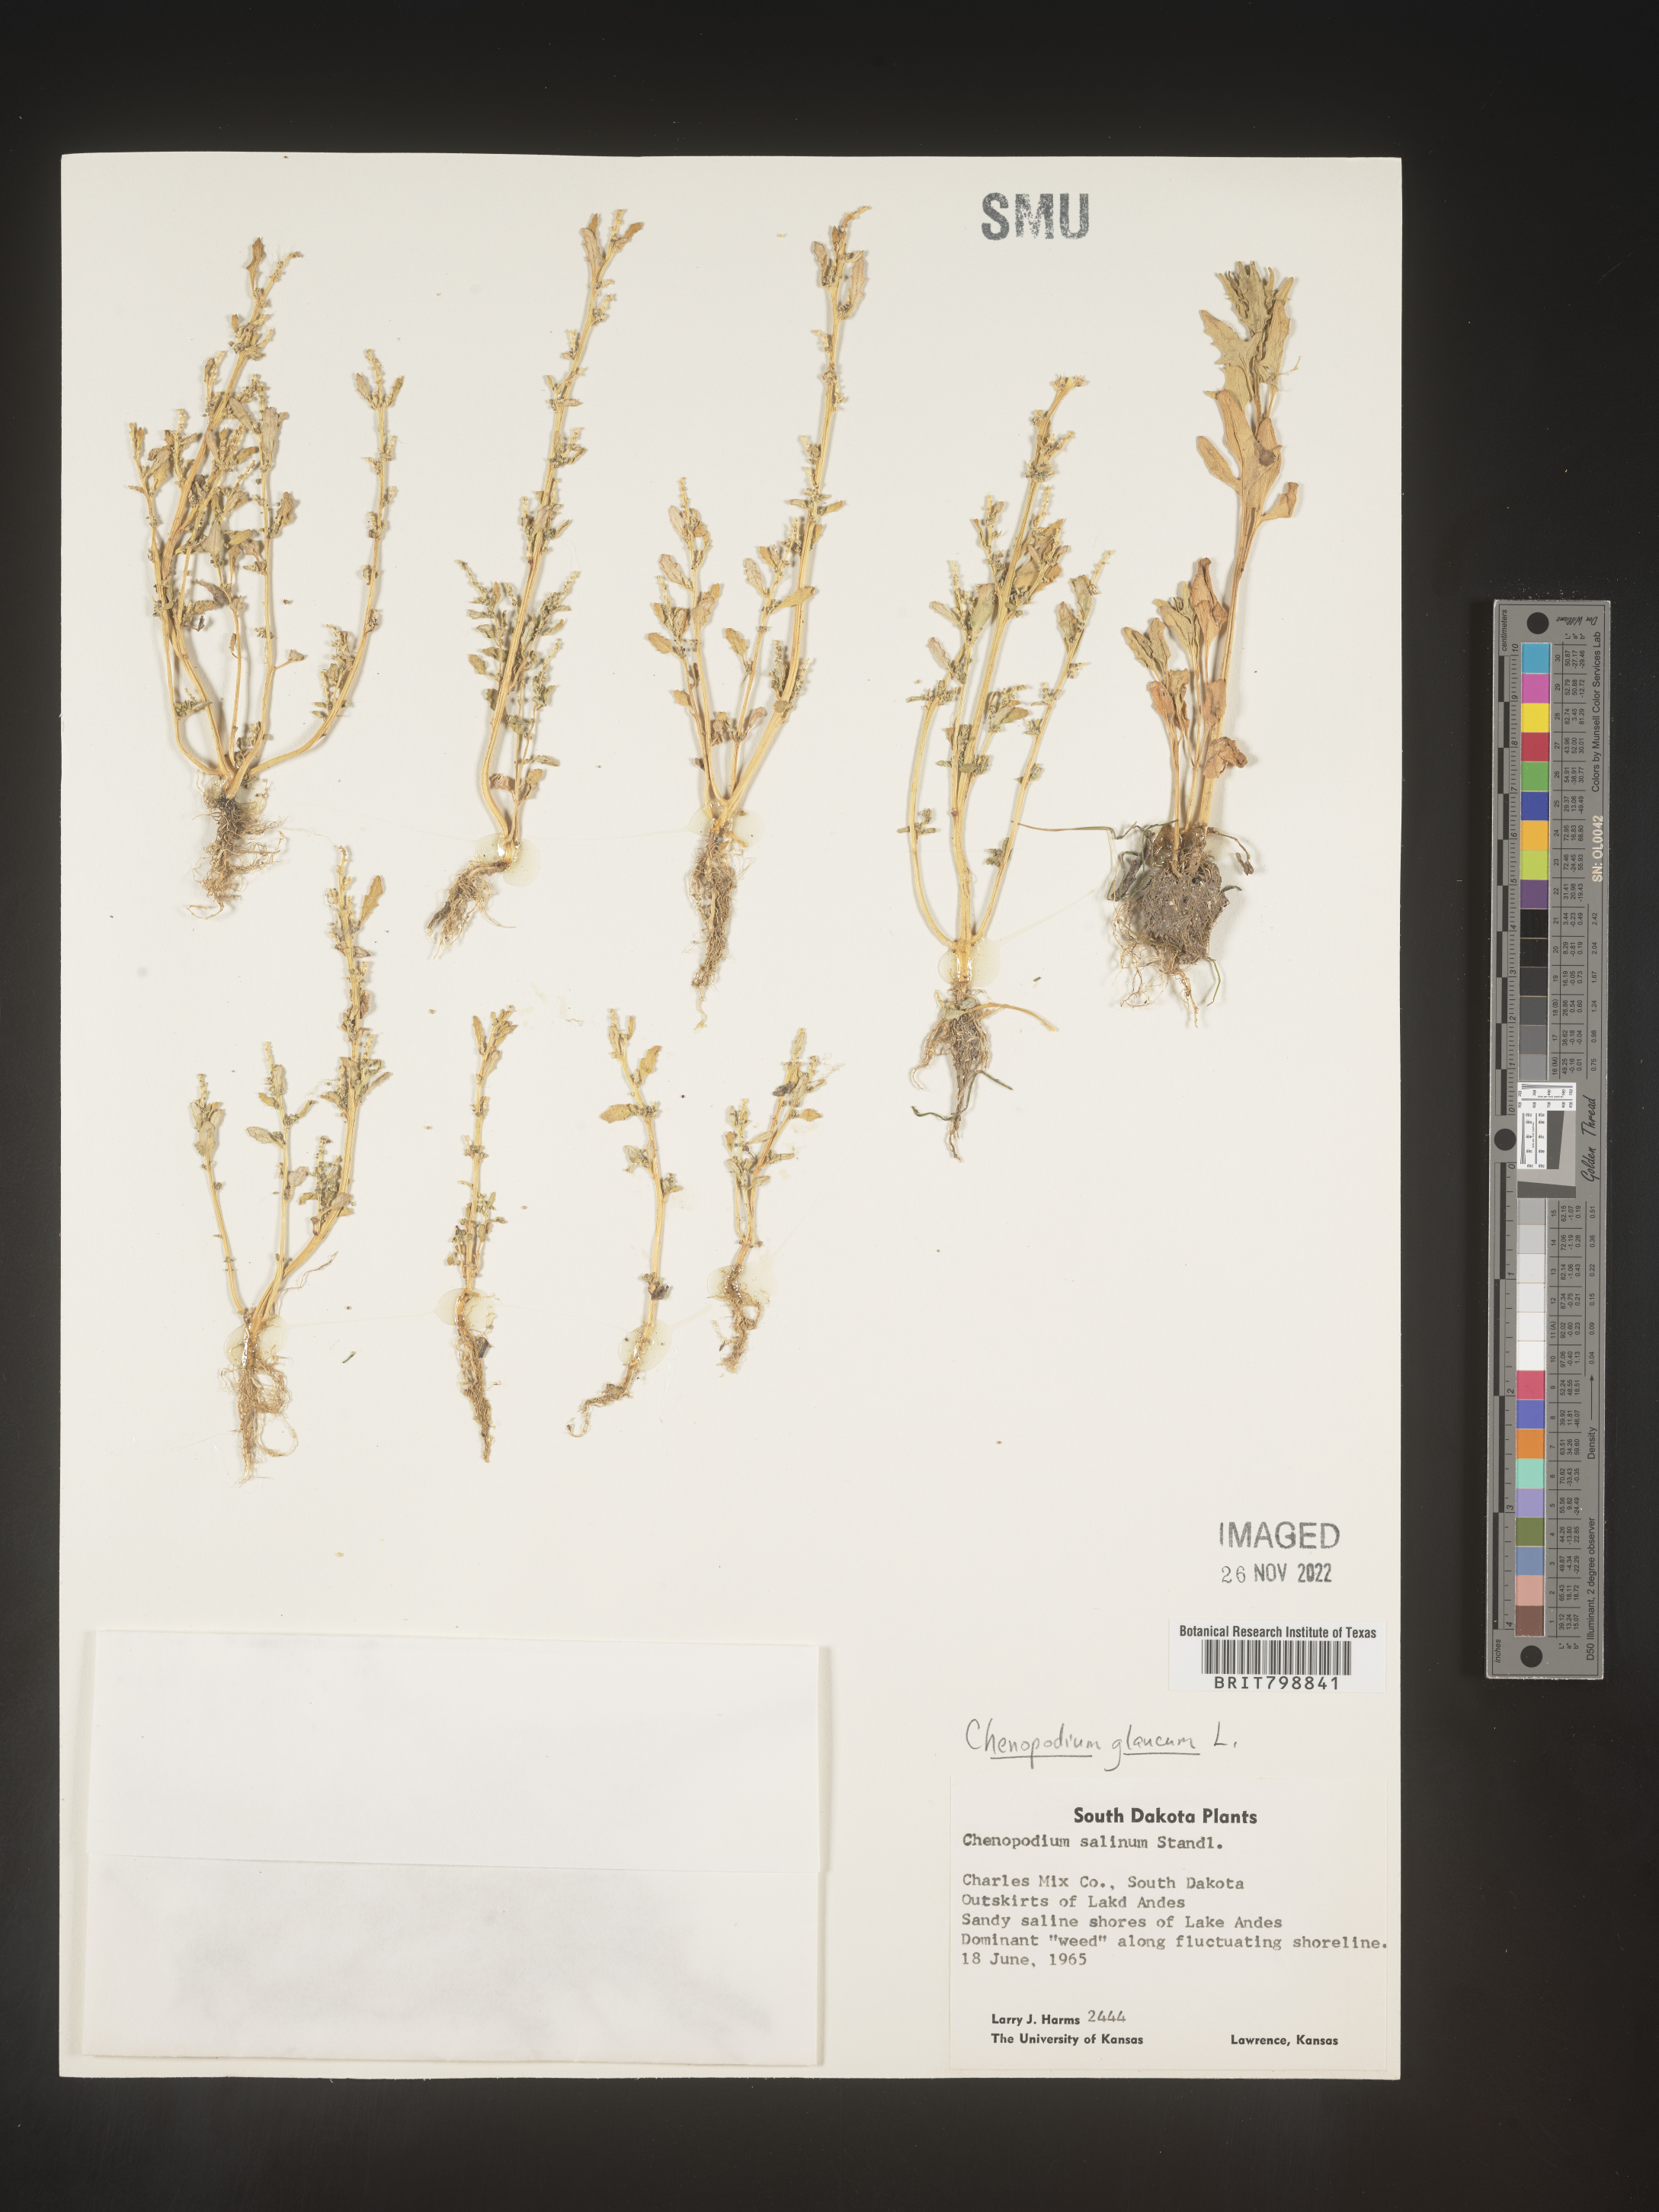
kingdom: Plantae
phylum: Tracheophyta
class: Magnoliopsida
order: Caryophyllales
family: Amaranthaceae
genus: Oxybasis
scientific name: Oxybasis glauca
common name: Glaucous goosefoot
